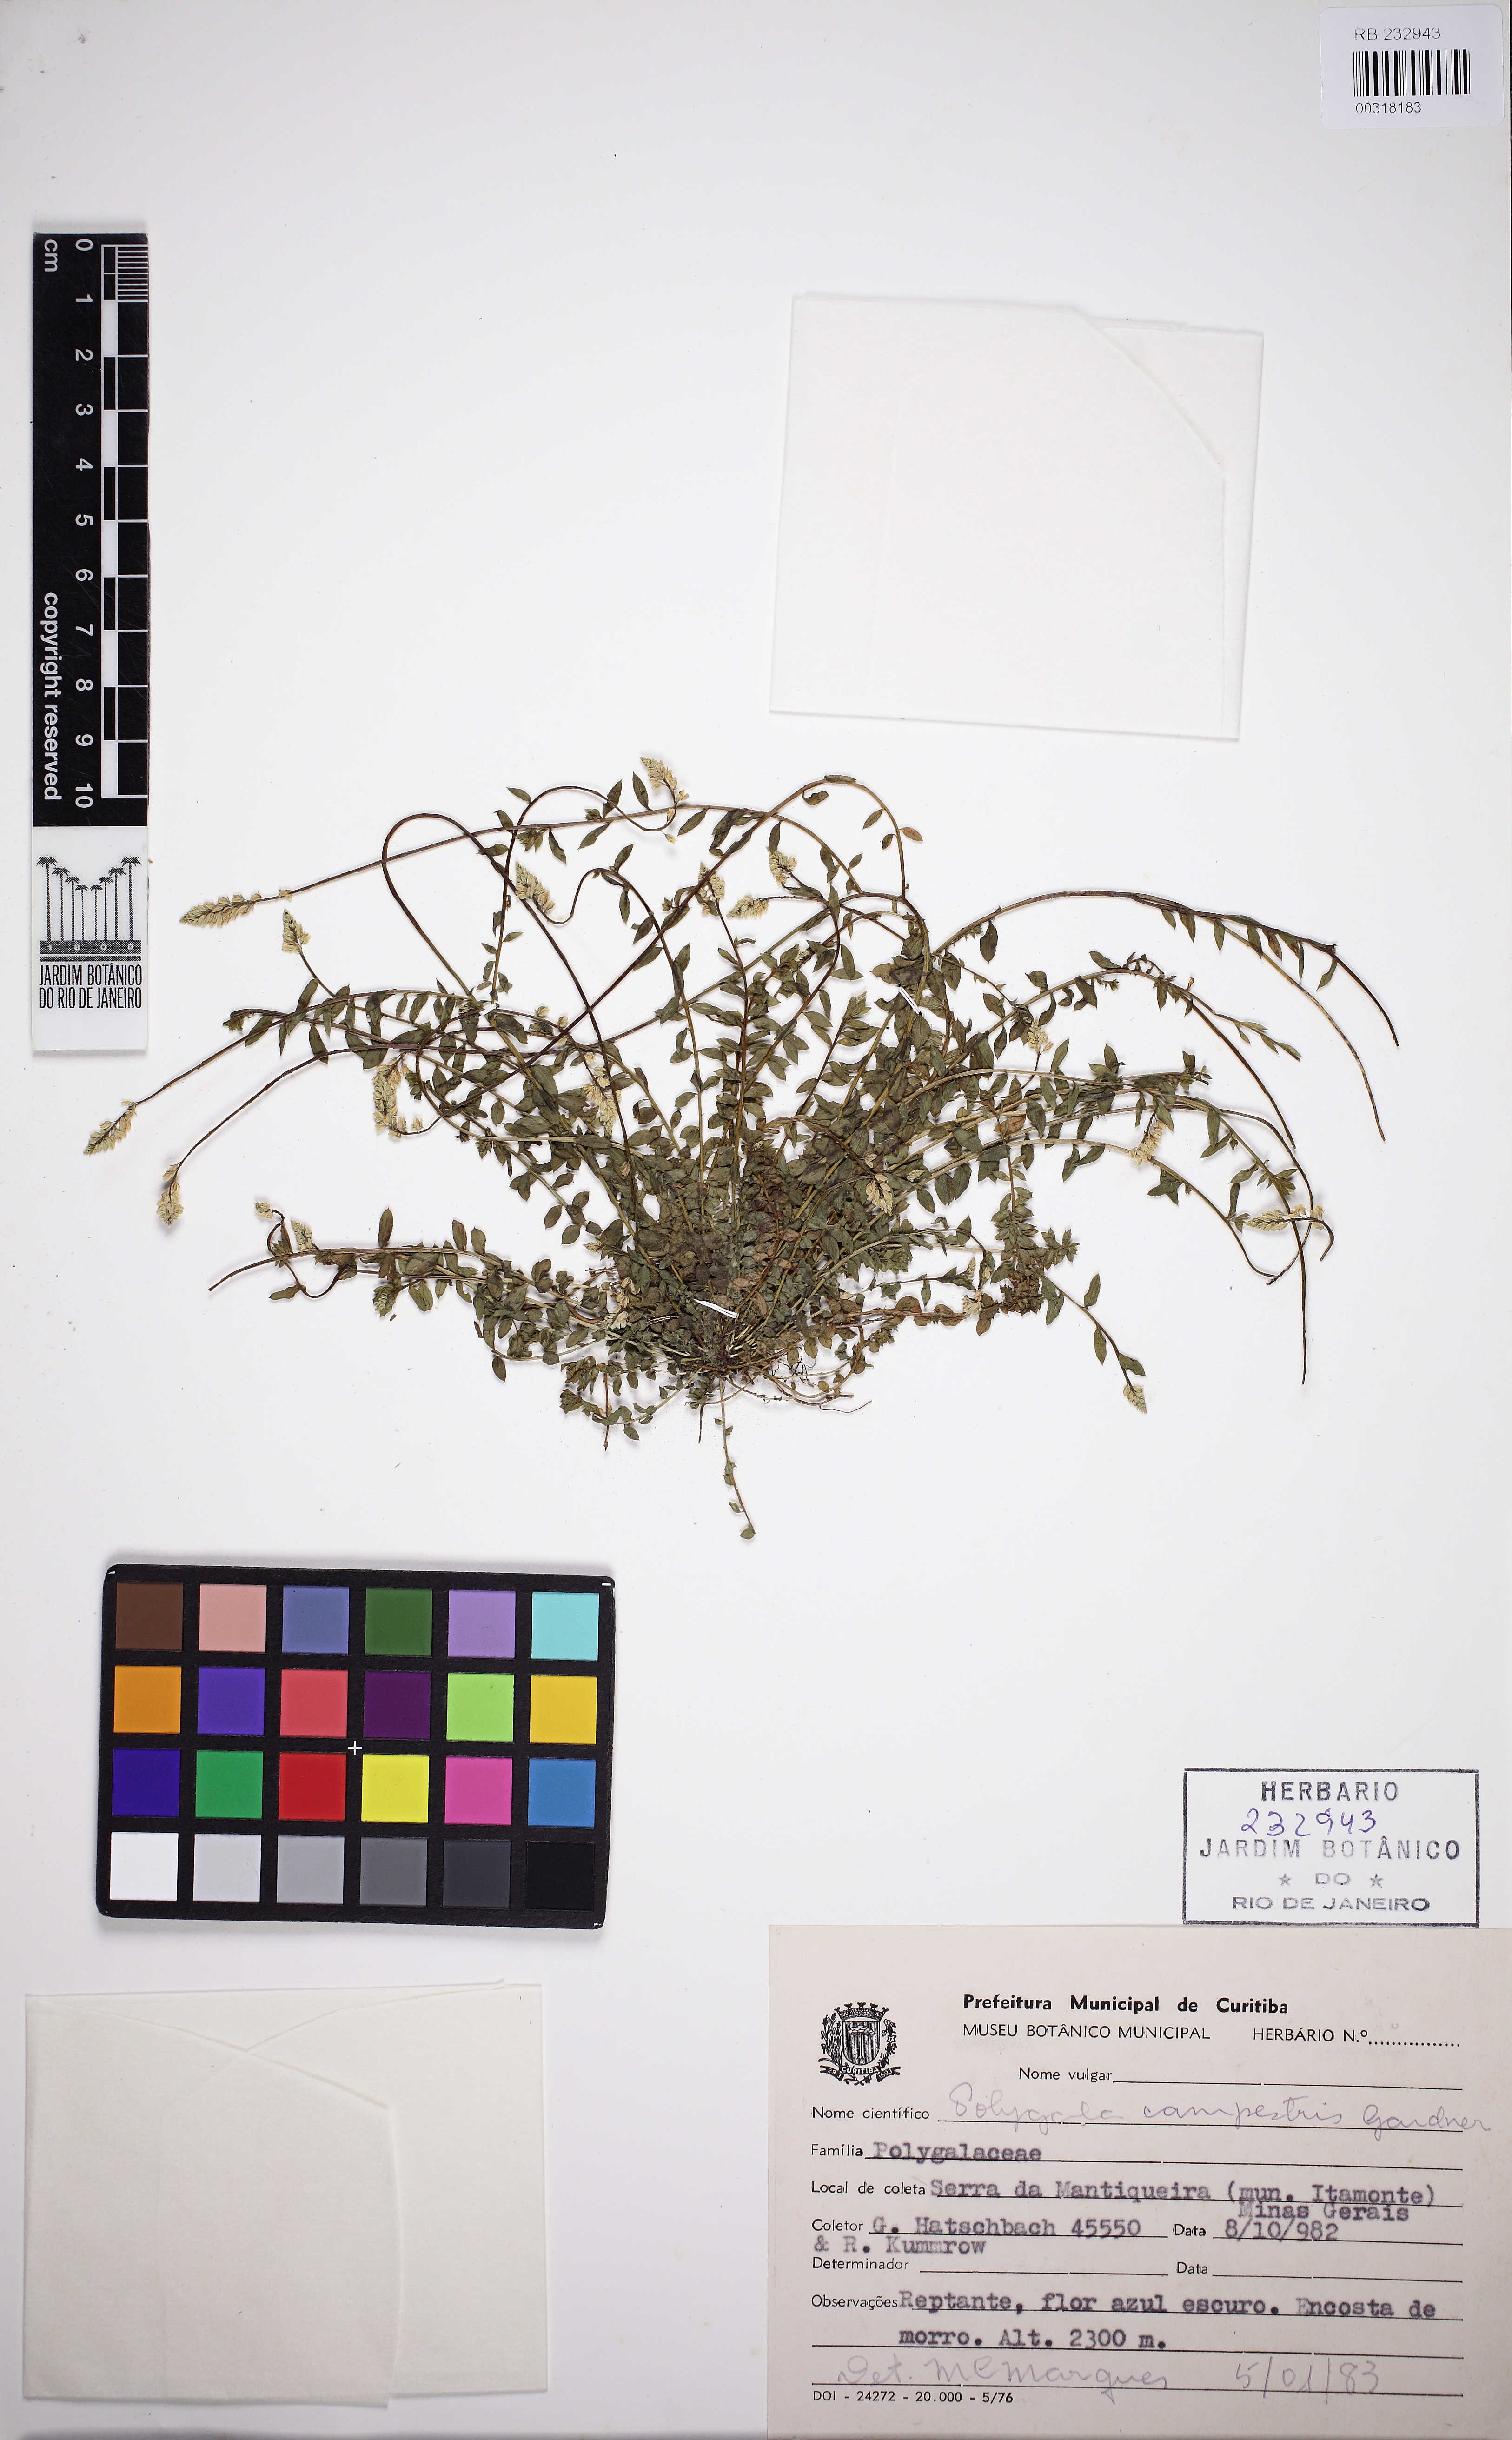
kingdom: Plantae
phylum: Tracheophyta
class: Magnoliopsida
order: Fabales
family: Polygalaceae
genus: Polygala
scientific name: Polygala campestris
